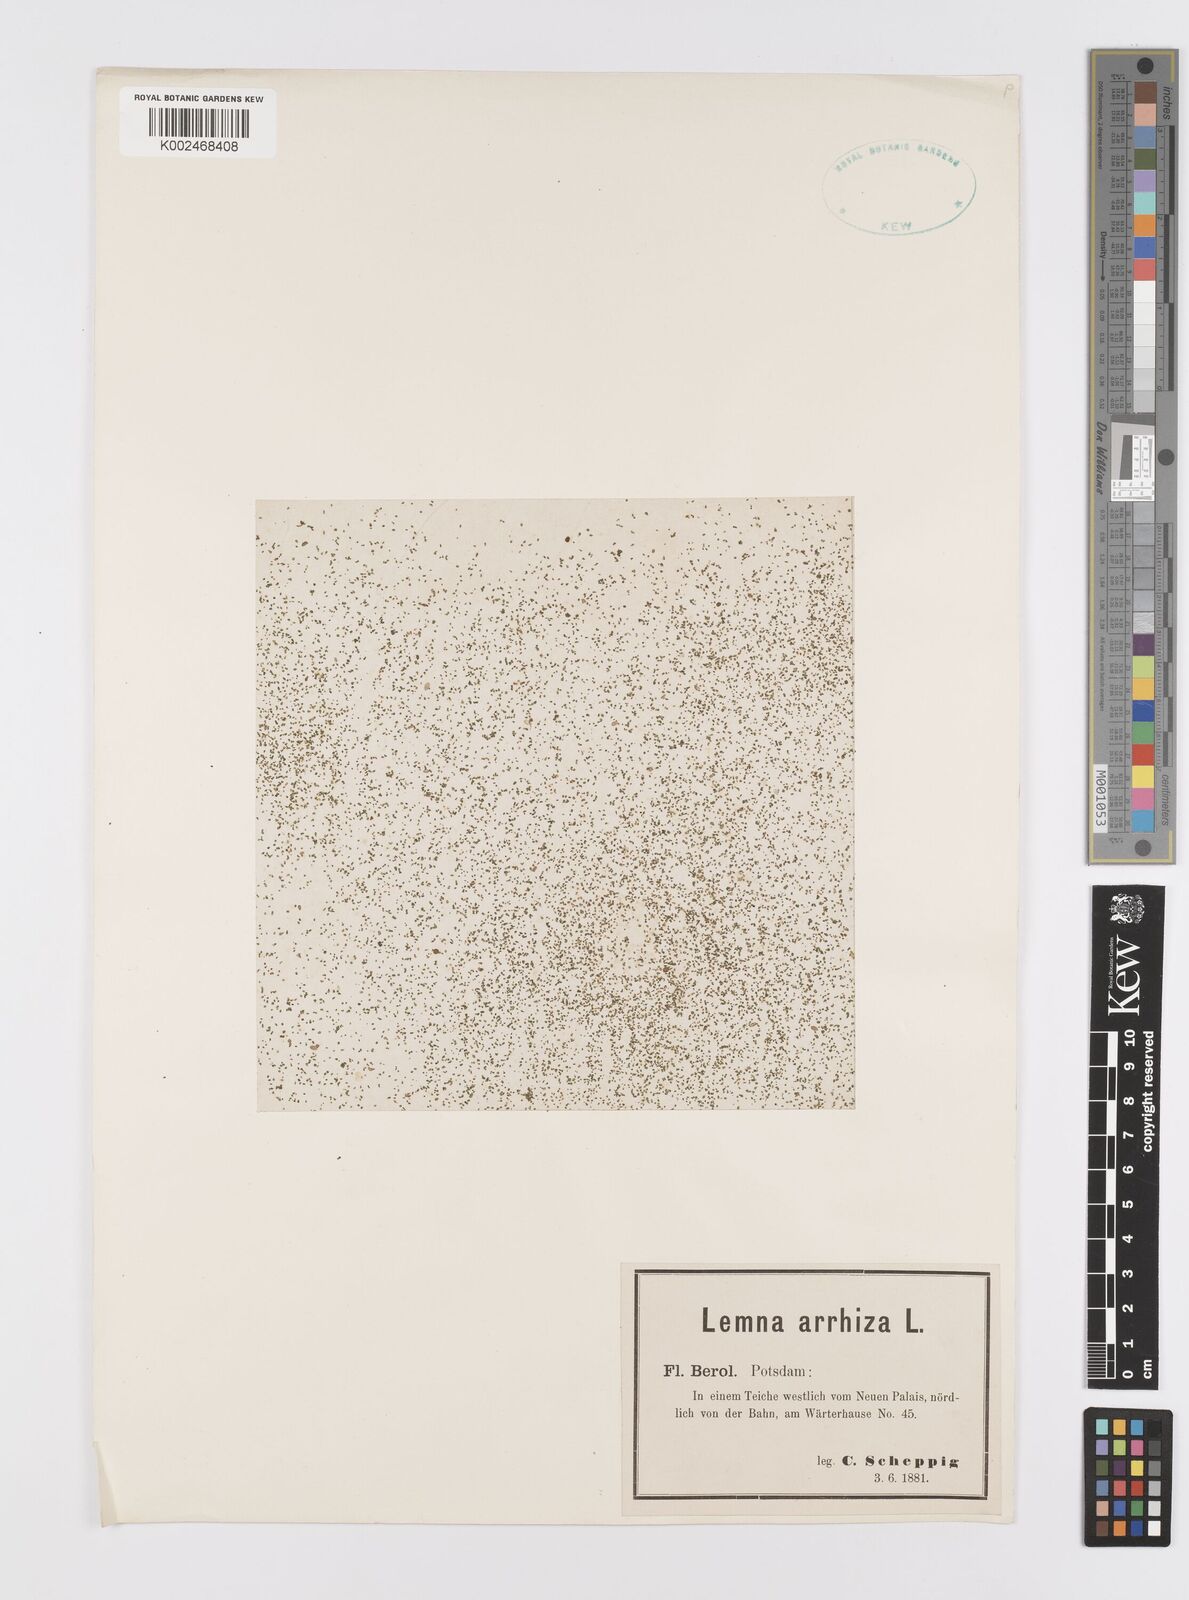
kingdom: Plantae
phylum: Tracheophyta
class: Liliopsida
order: Alismatales
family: Araceae
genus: Wolffia
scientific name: Wolffia arrhiza
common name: Rootless duckweed
